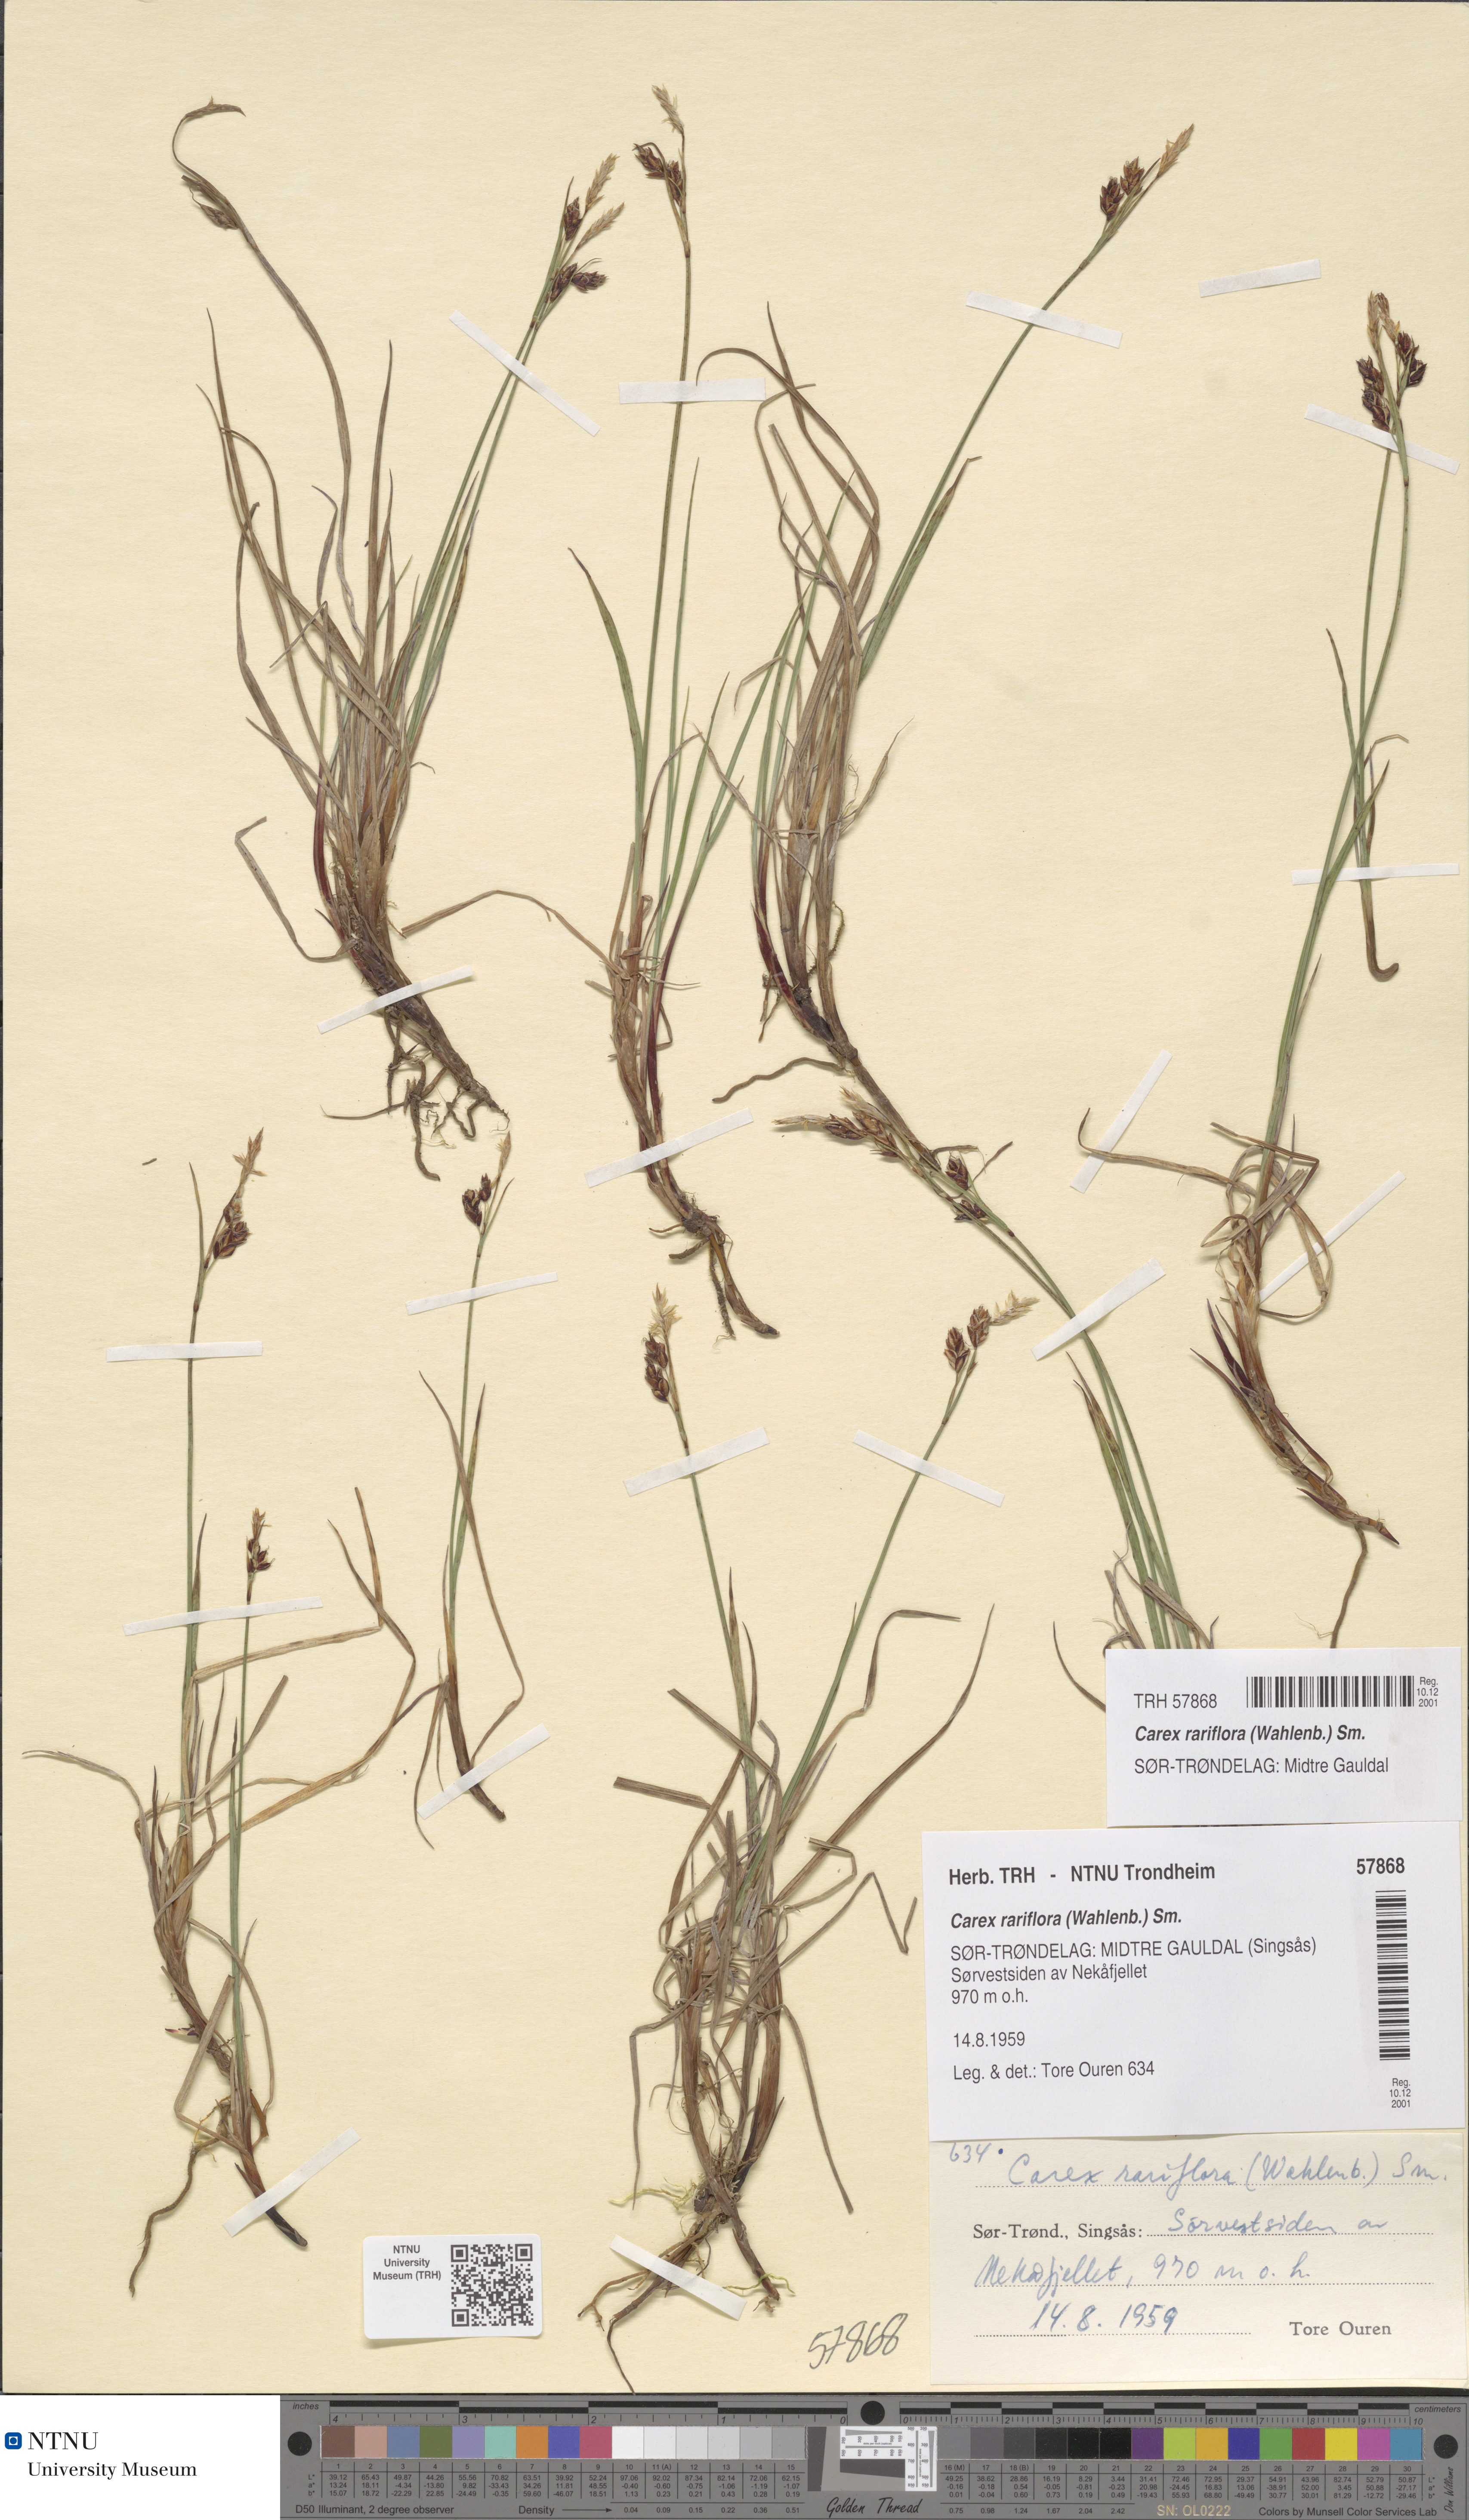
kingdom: Plantae
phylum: Tracheophyta
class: Liliopsida
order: Poales
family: Cyperaceae
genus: Carex
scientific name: Carex rariflora
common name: Loose-flowered alpine sedge
